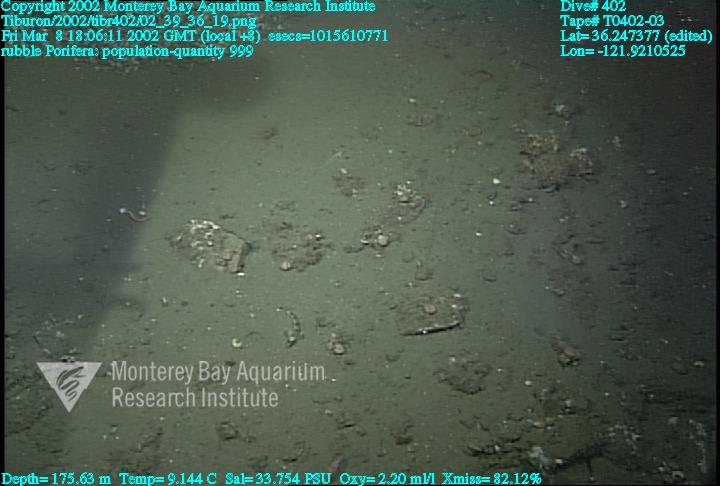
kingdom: Animalia
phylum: Porifera
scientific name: Porifera
